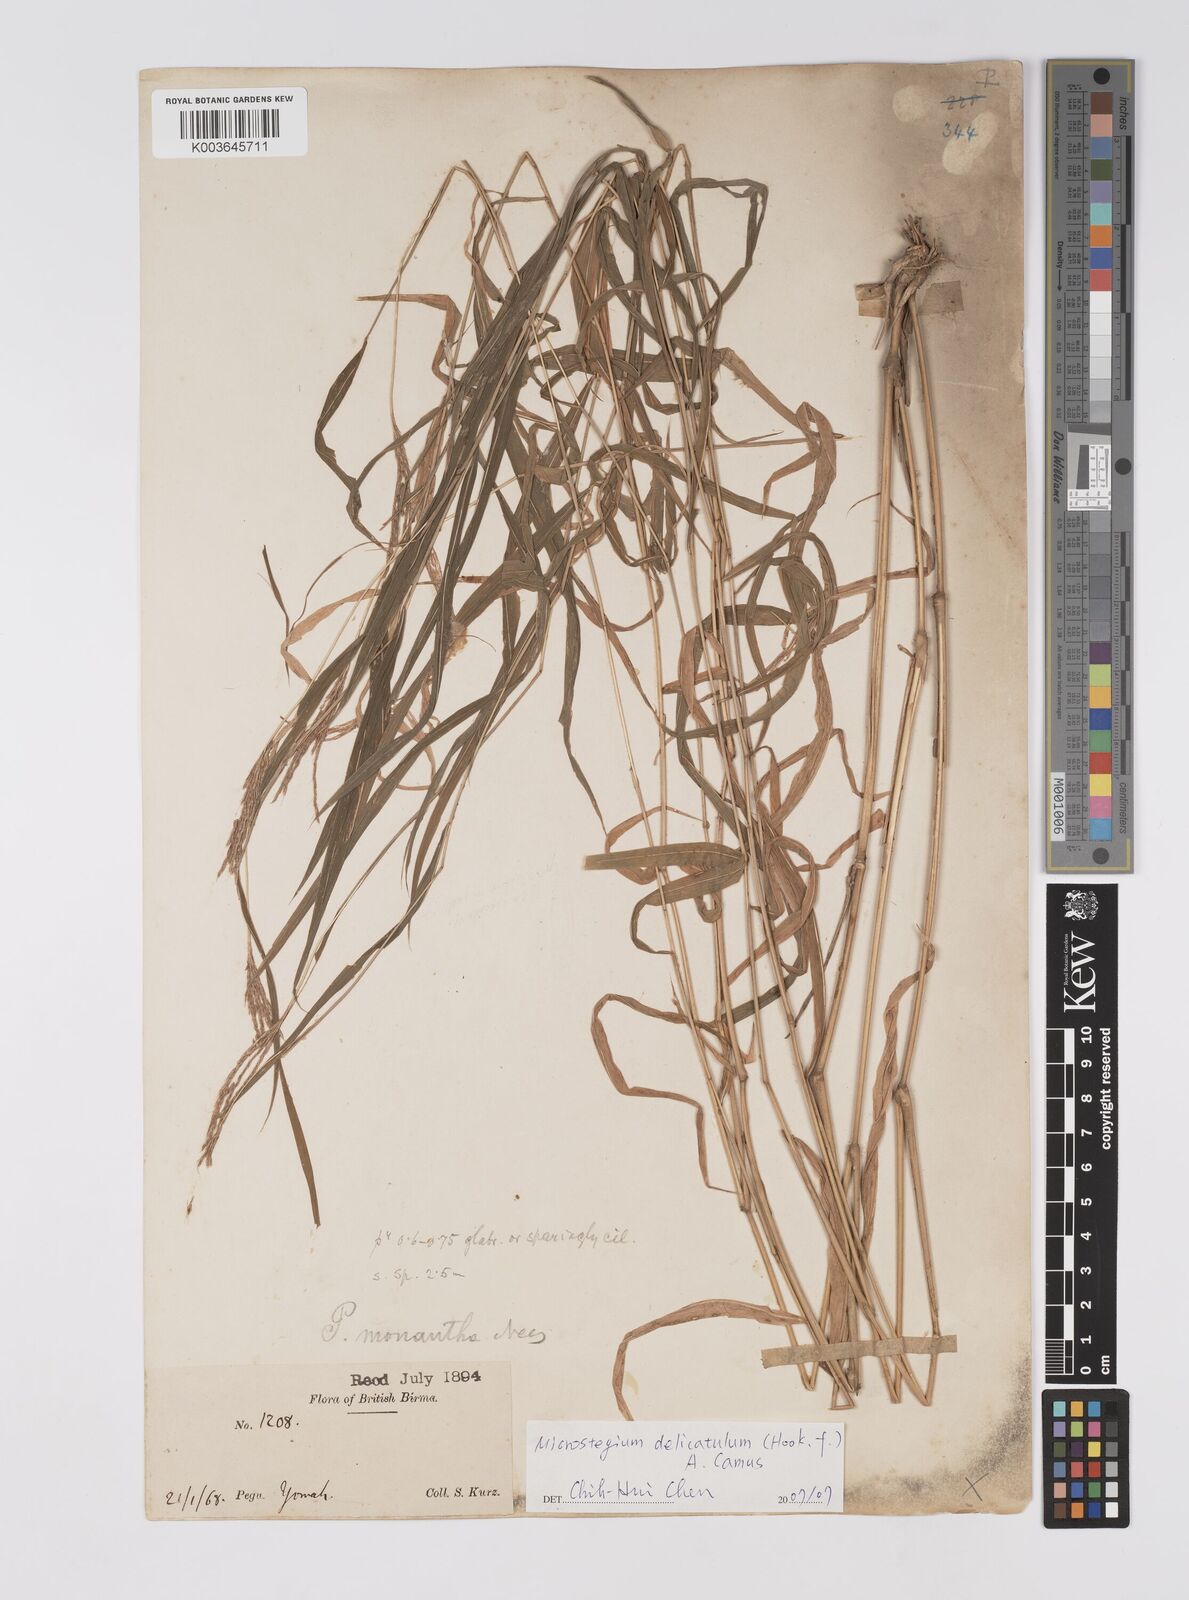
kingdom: Plantae
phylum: Tracheophyta
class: Liliopsida
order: Poales
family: Poaceae
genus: Microstegium
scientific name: Microstegium delicatulum
